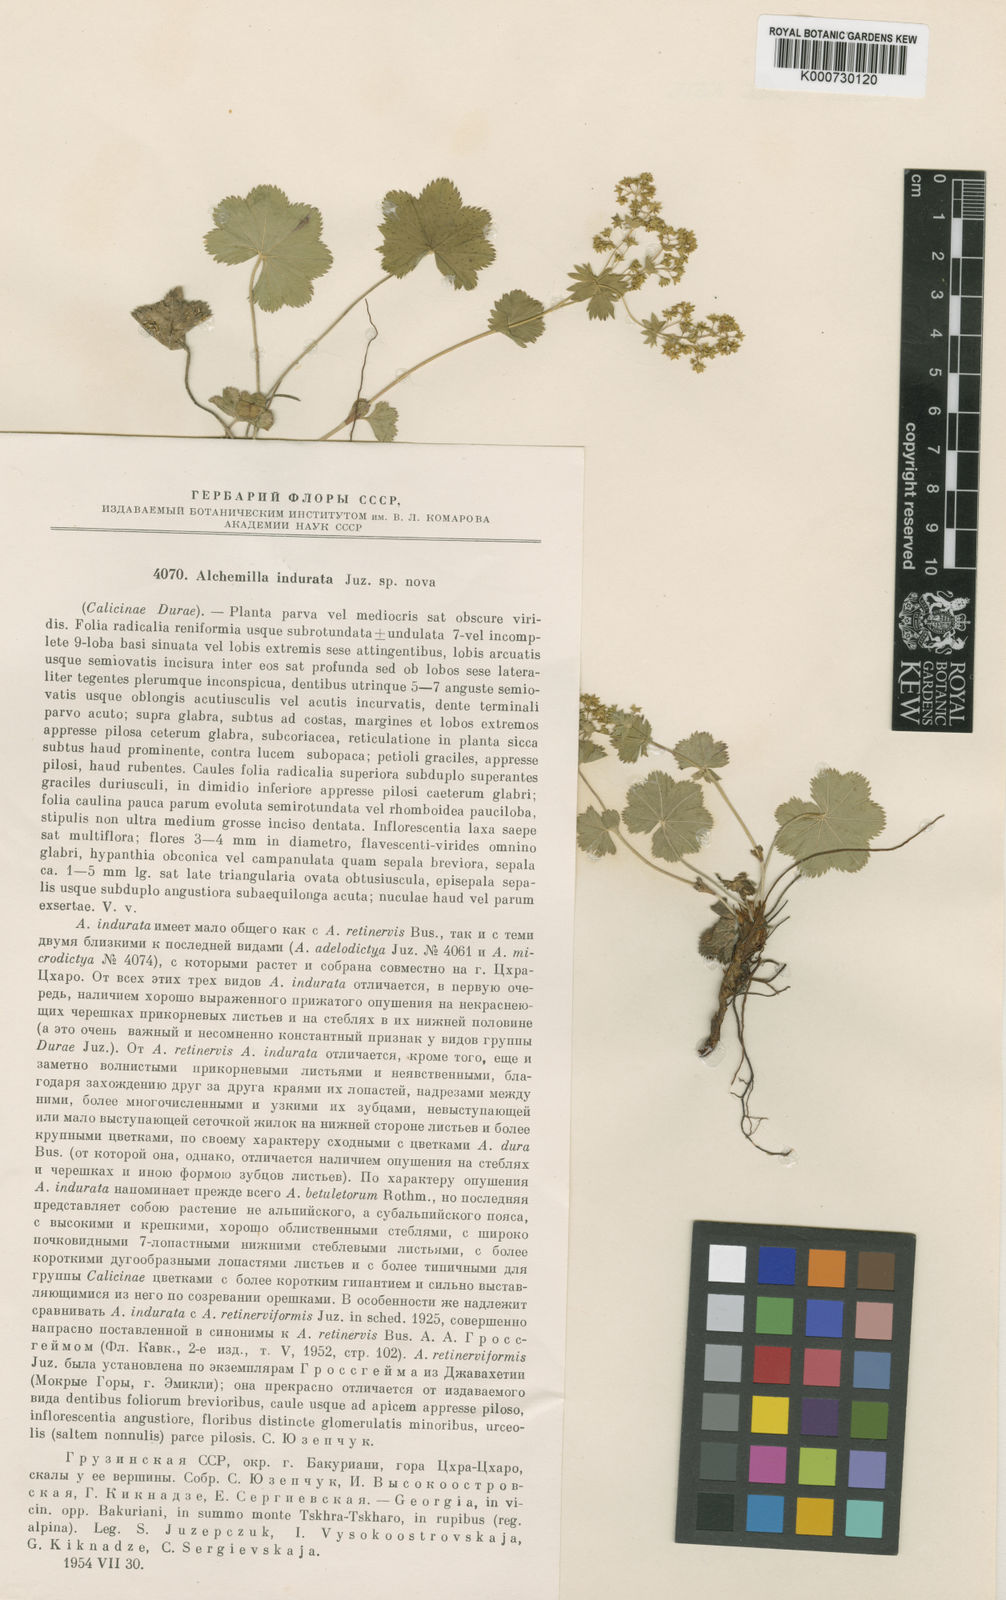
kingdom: Plantae
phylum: Tracheophyta
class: Magnoliopsida
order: Rosales
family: Rosaceae
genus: Alchemilla
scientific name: Alchemilla indurata
